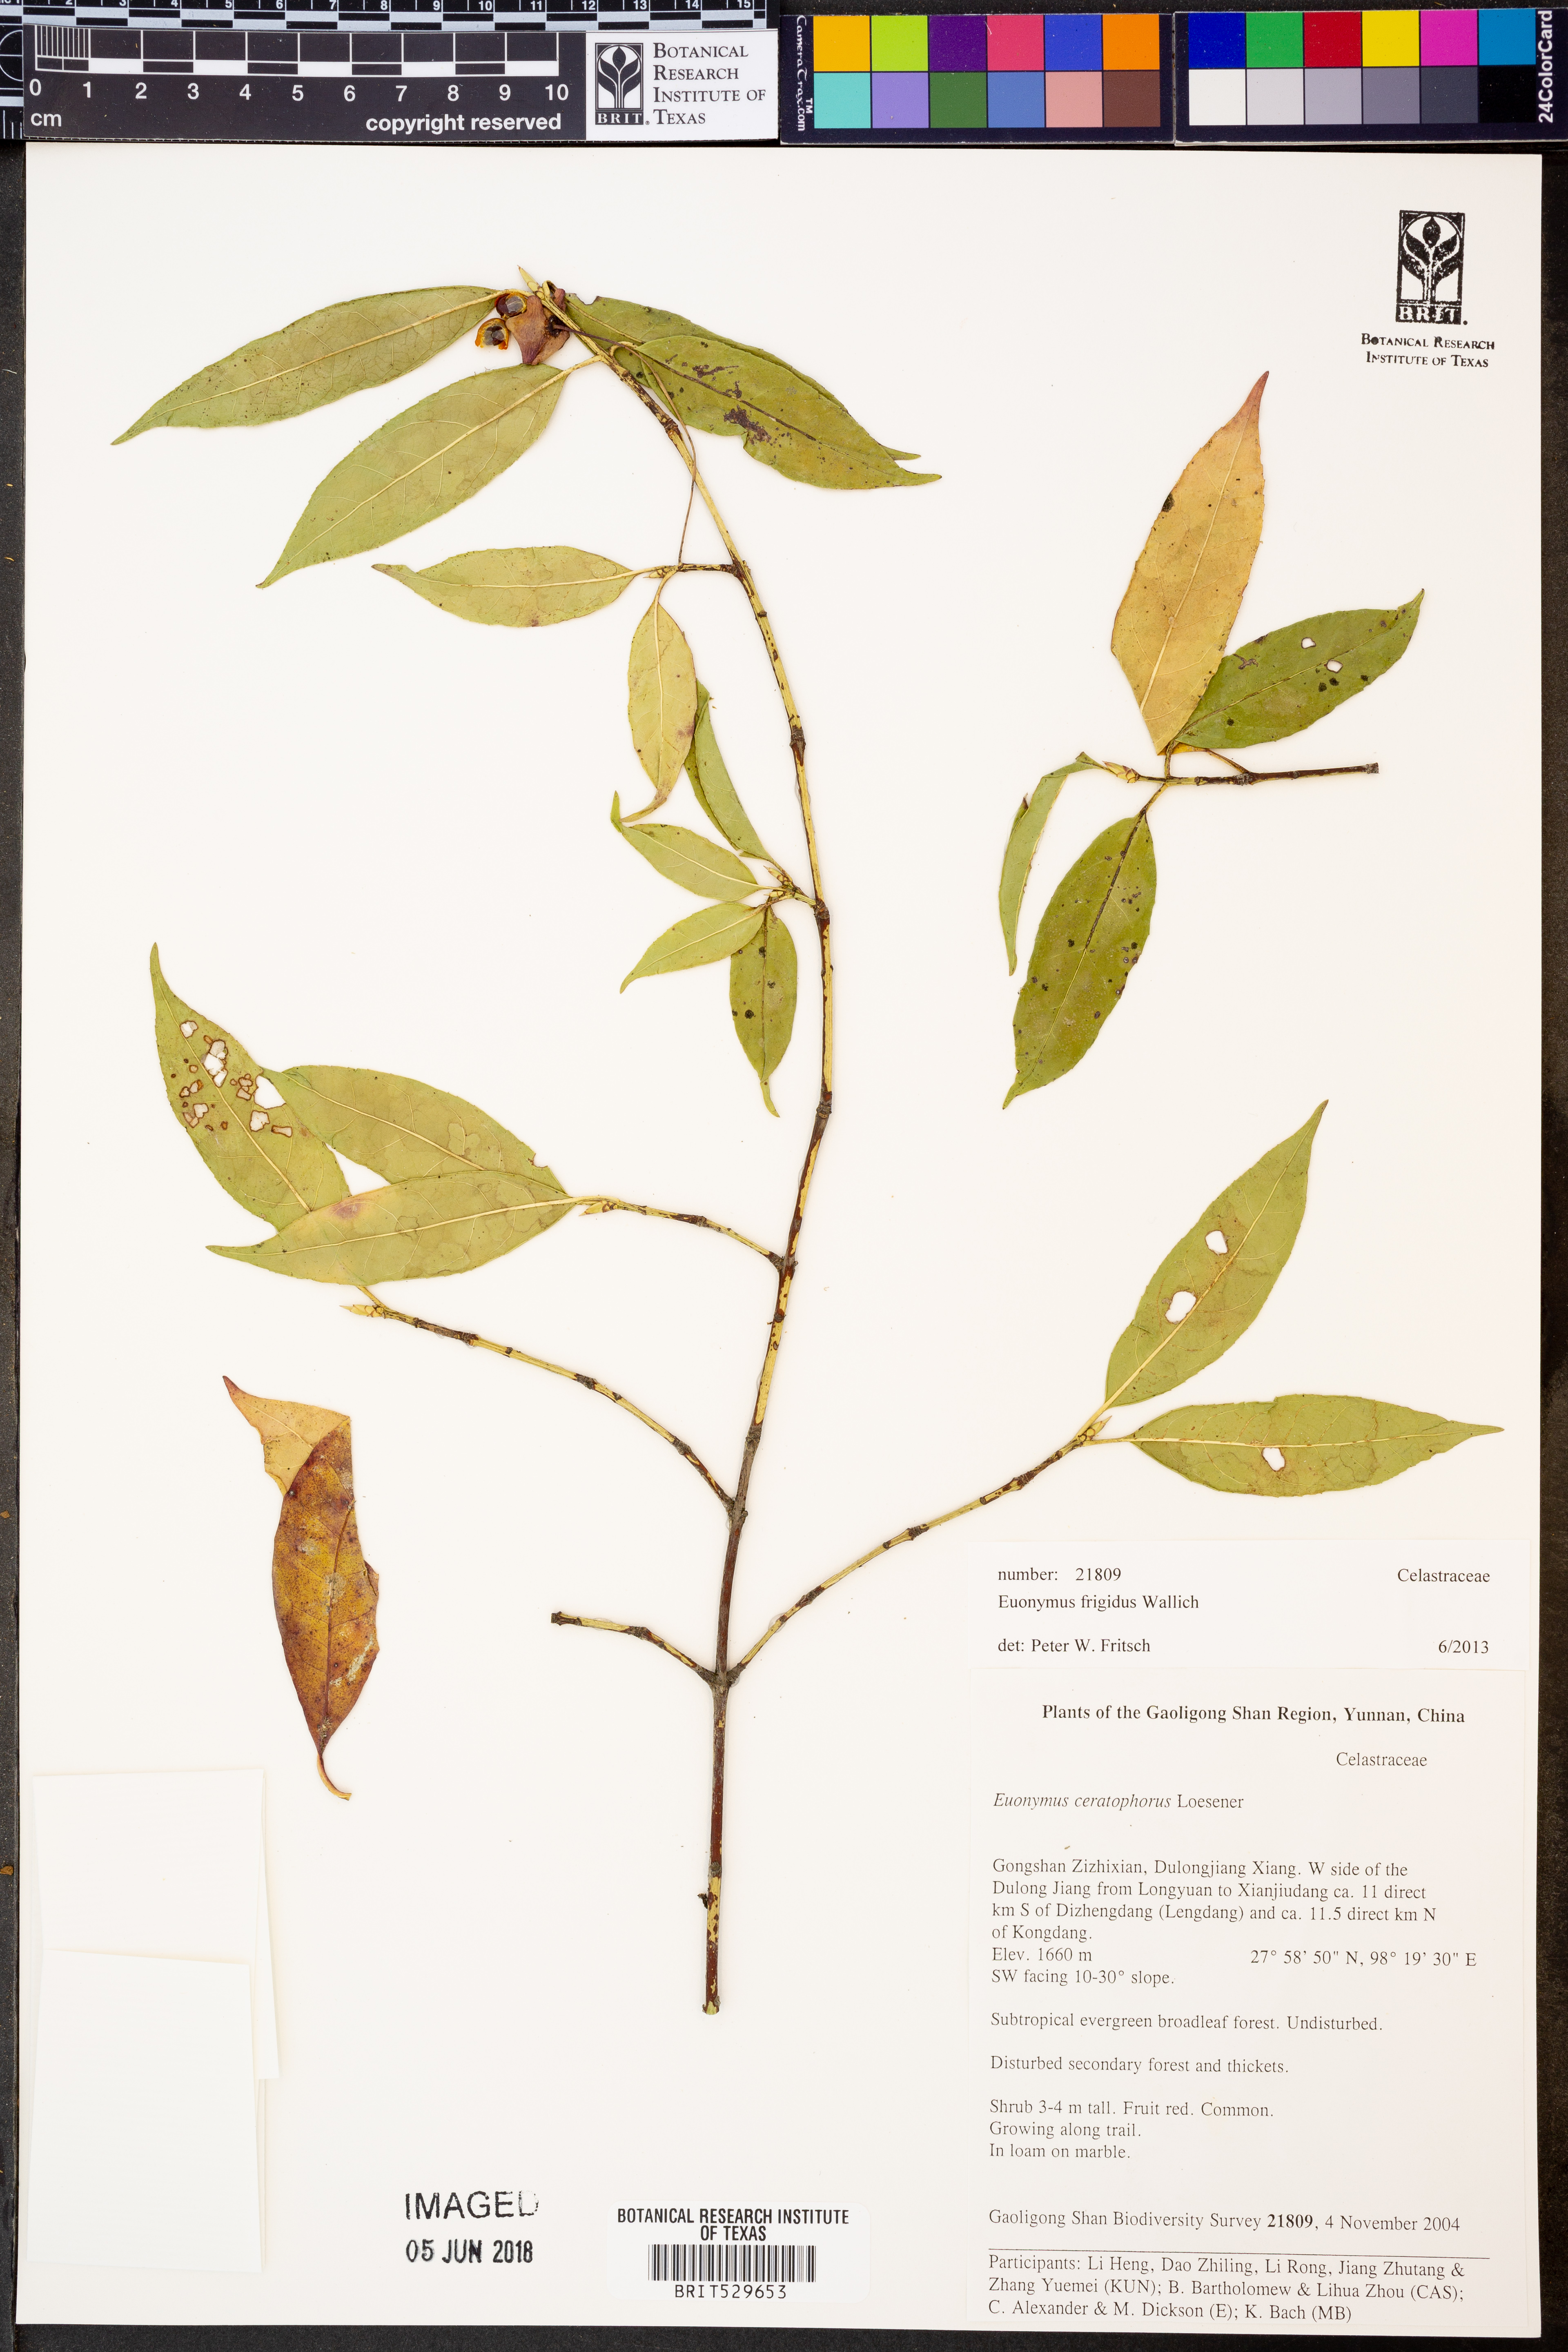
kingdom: Plantae
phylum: Tracheophyta
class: Magnoliopsida
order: Celastrales
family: Celastraceae
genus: Euonymus
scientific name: Euonymus frigidus
